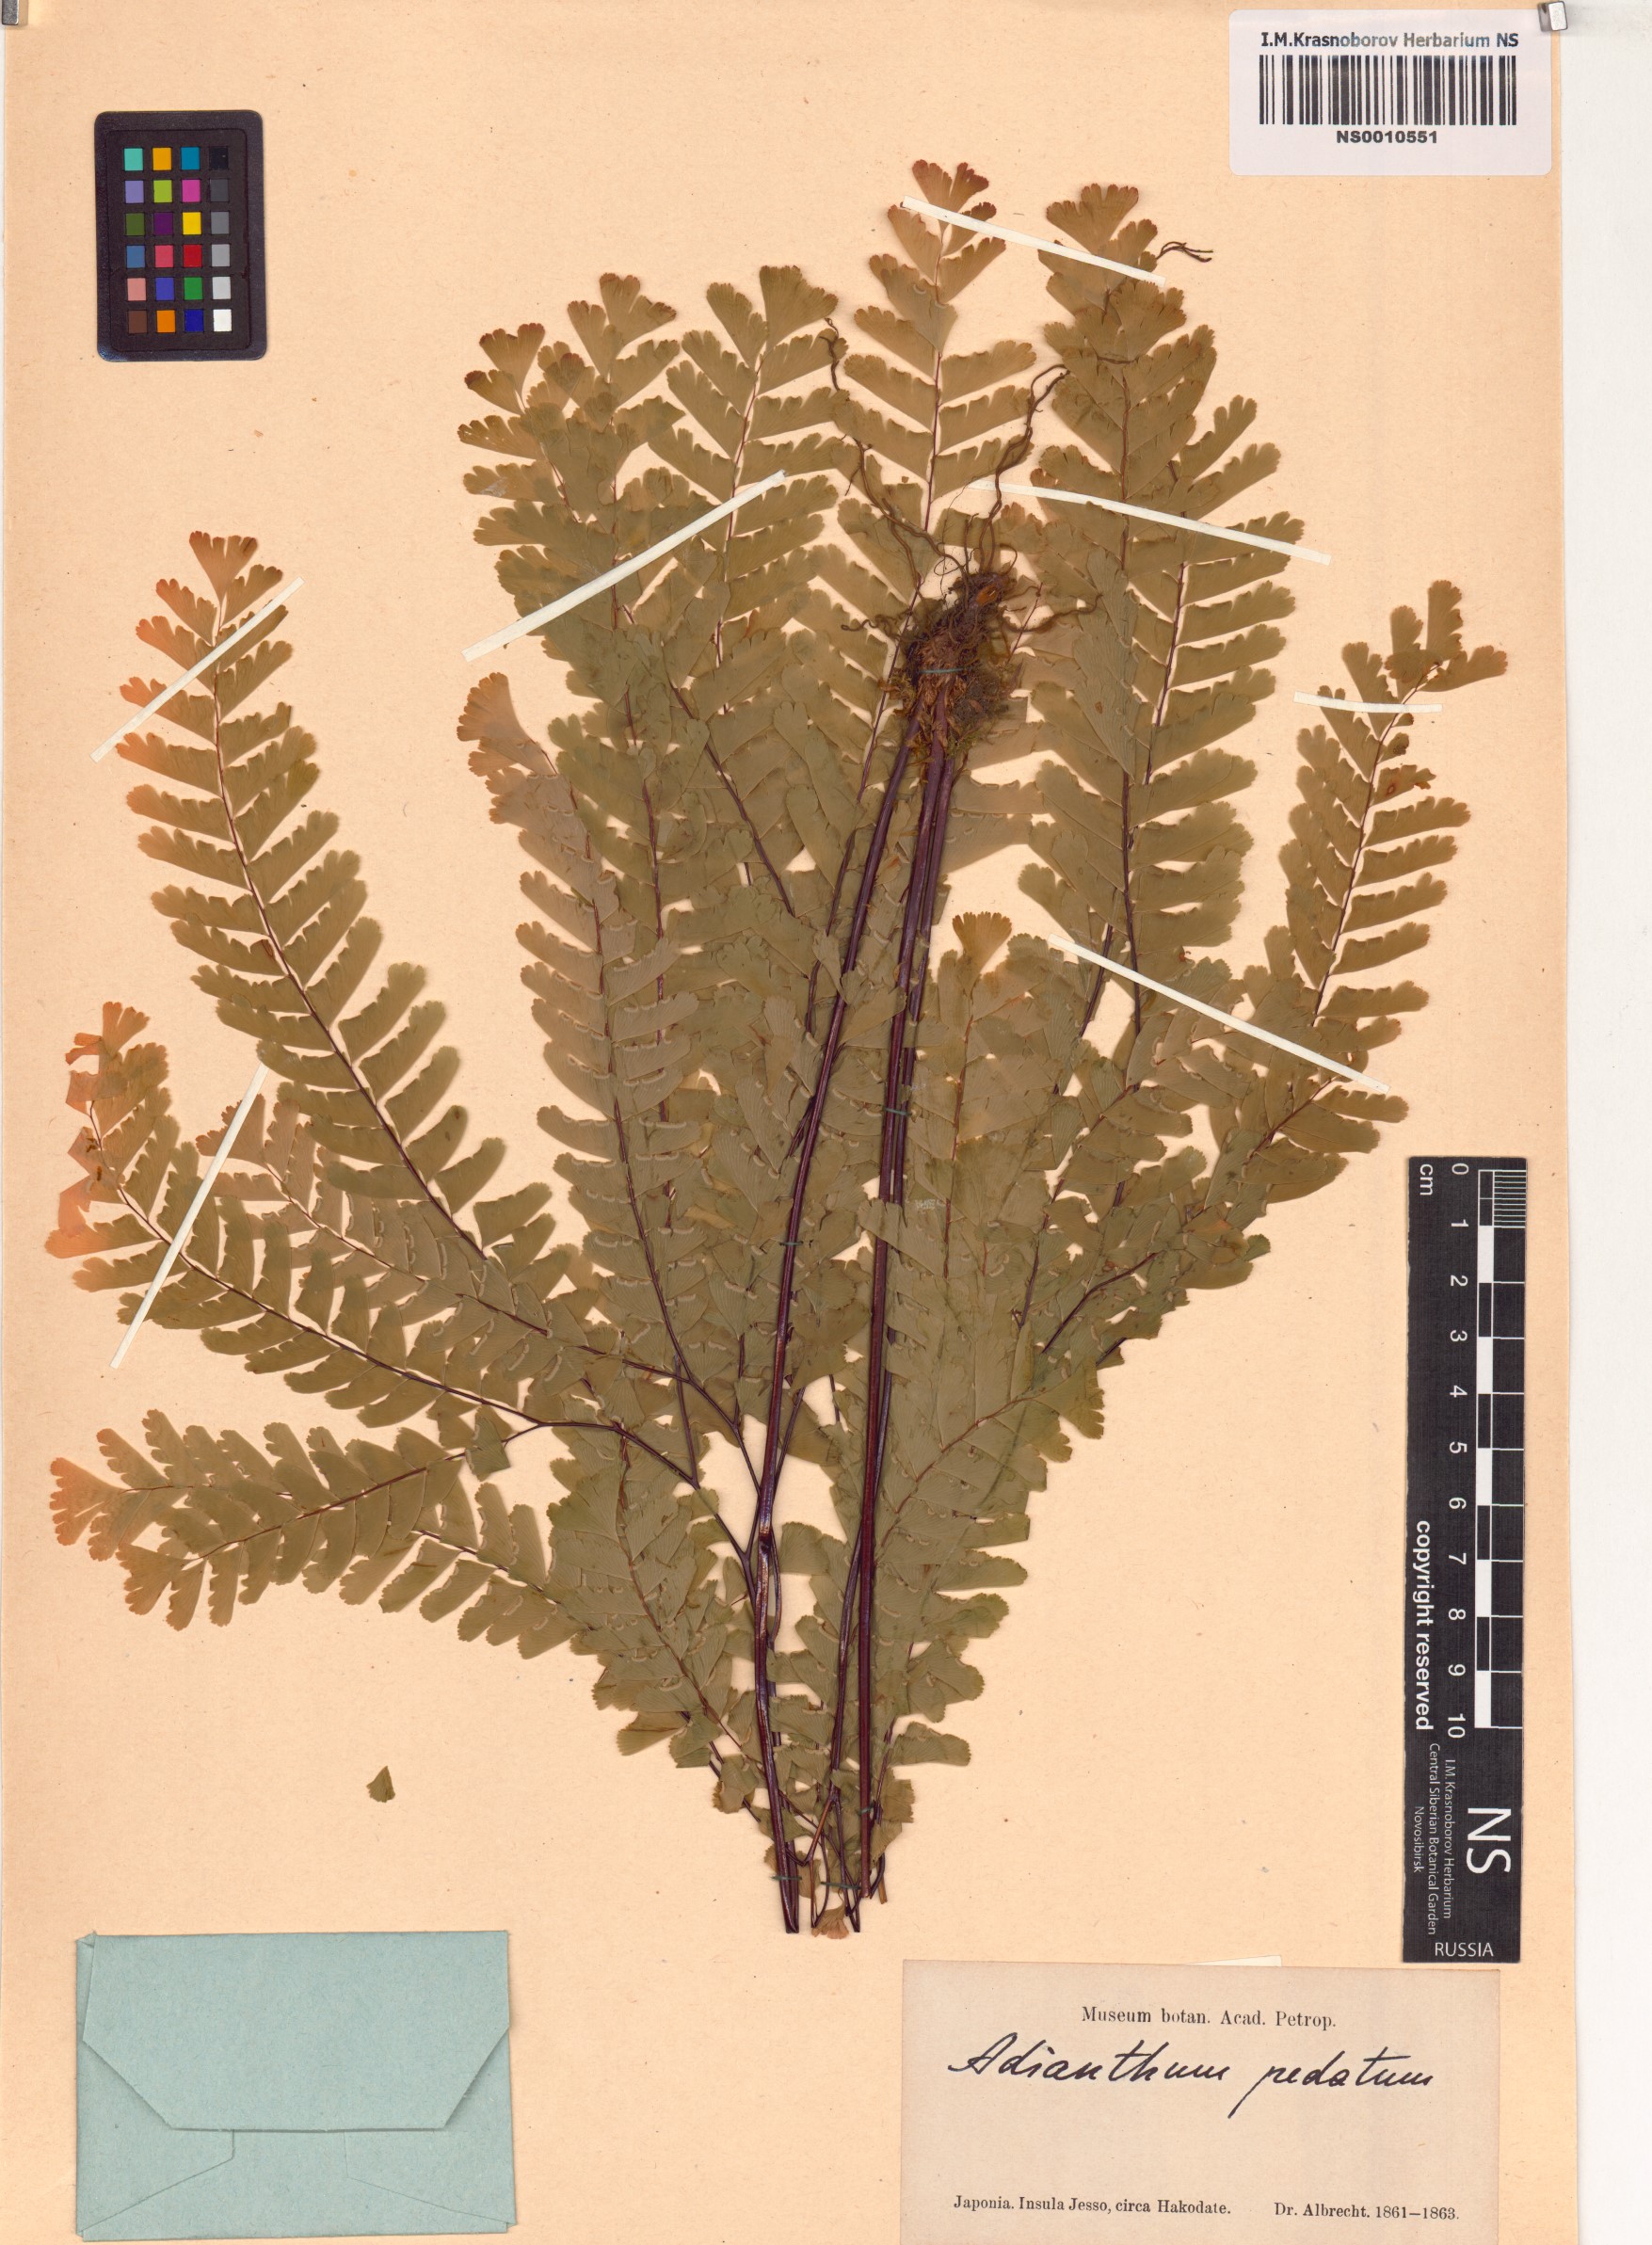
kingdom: Plantae
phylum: Tracheophyta
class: Polypodiopsida
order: Polypodiales
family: Pteridaceae
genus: Adiantum
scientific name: Adiantum pedatum
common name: Five-finger fern
